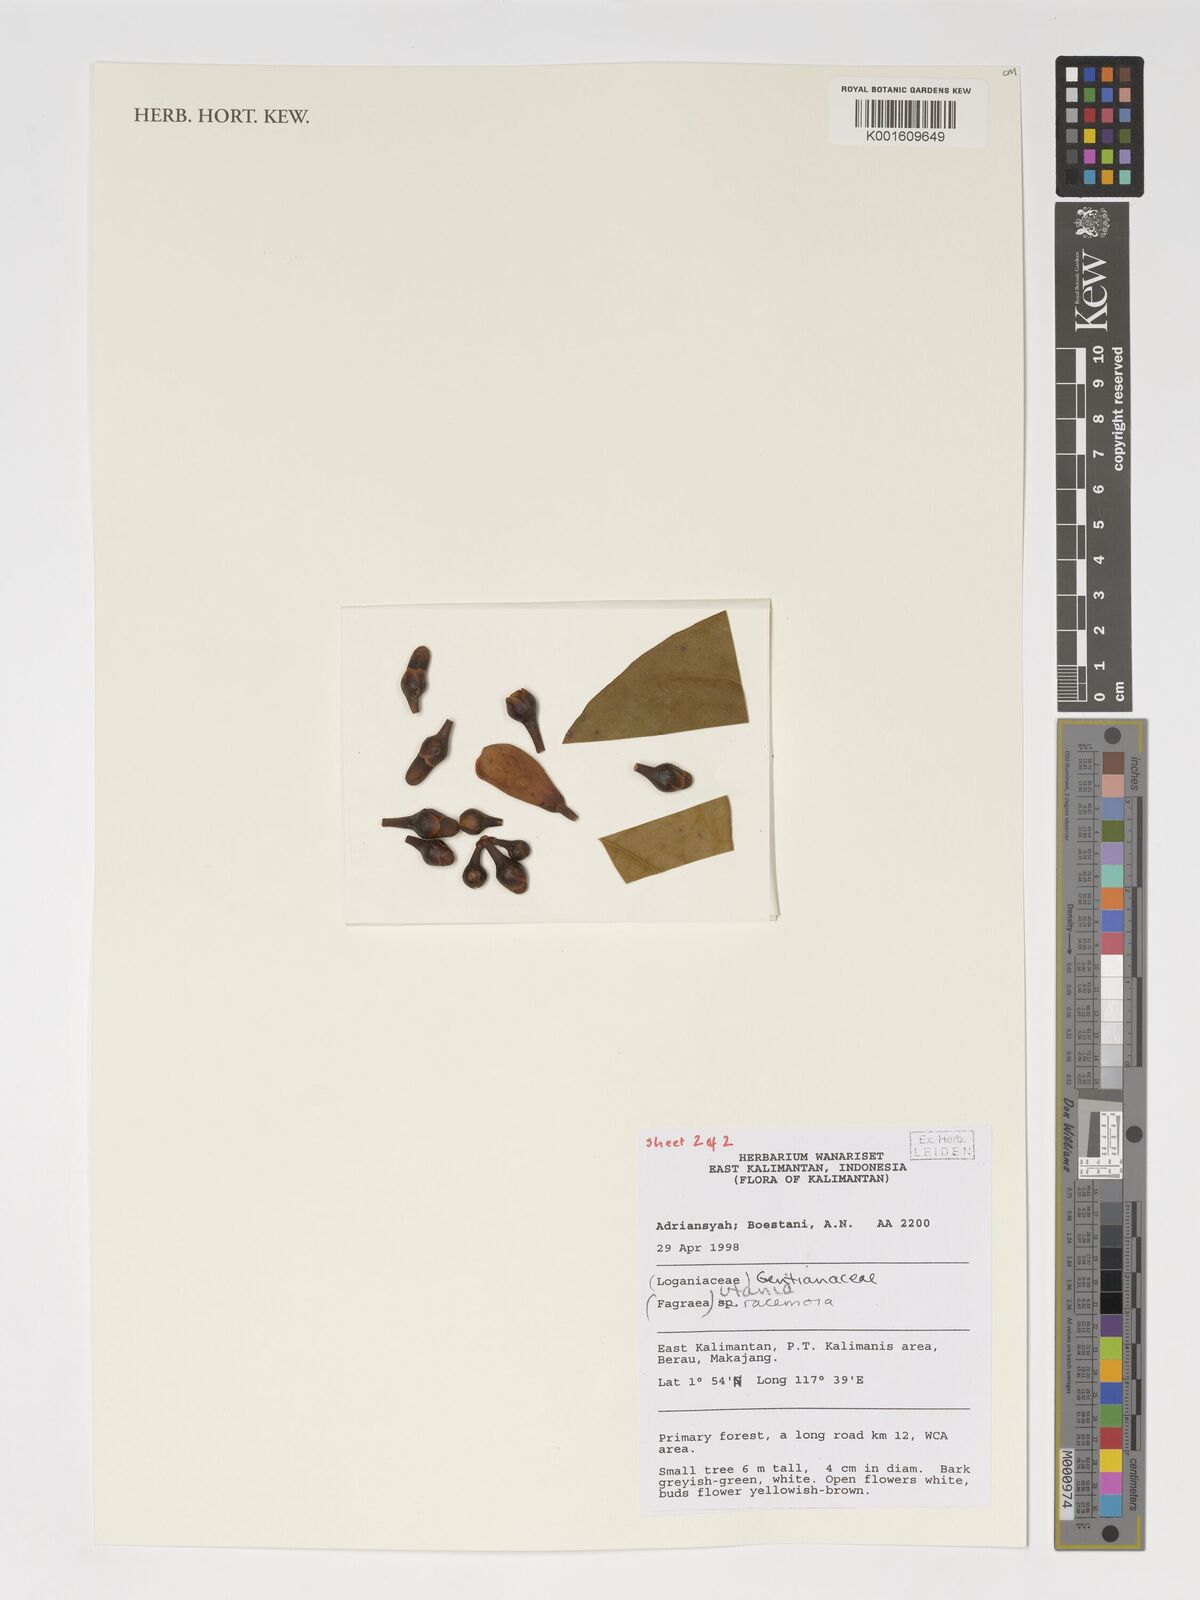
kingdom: Plantae
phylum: Tracheophyta
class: Magnoliopsida
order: Gentianales
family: Gentianaceae
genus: Utania
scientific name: Utania racemosa
